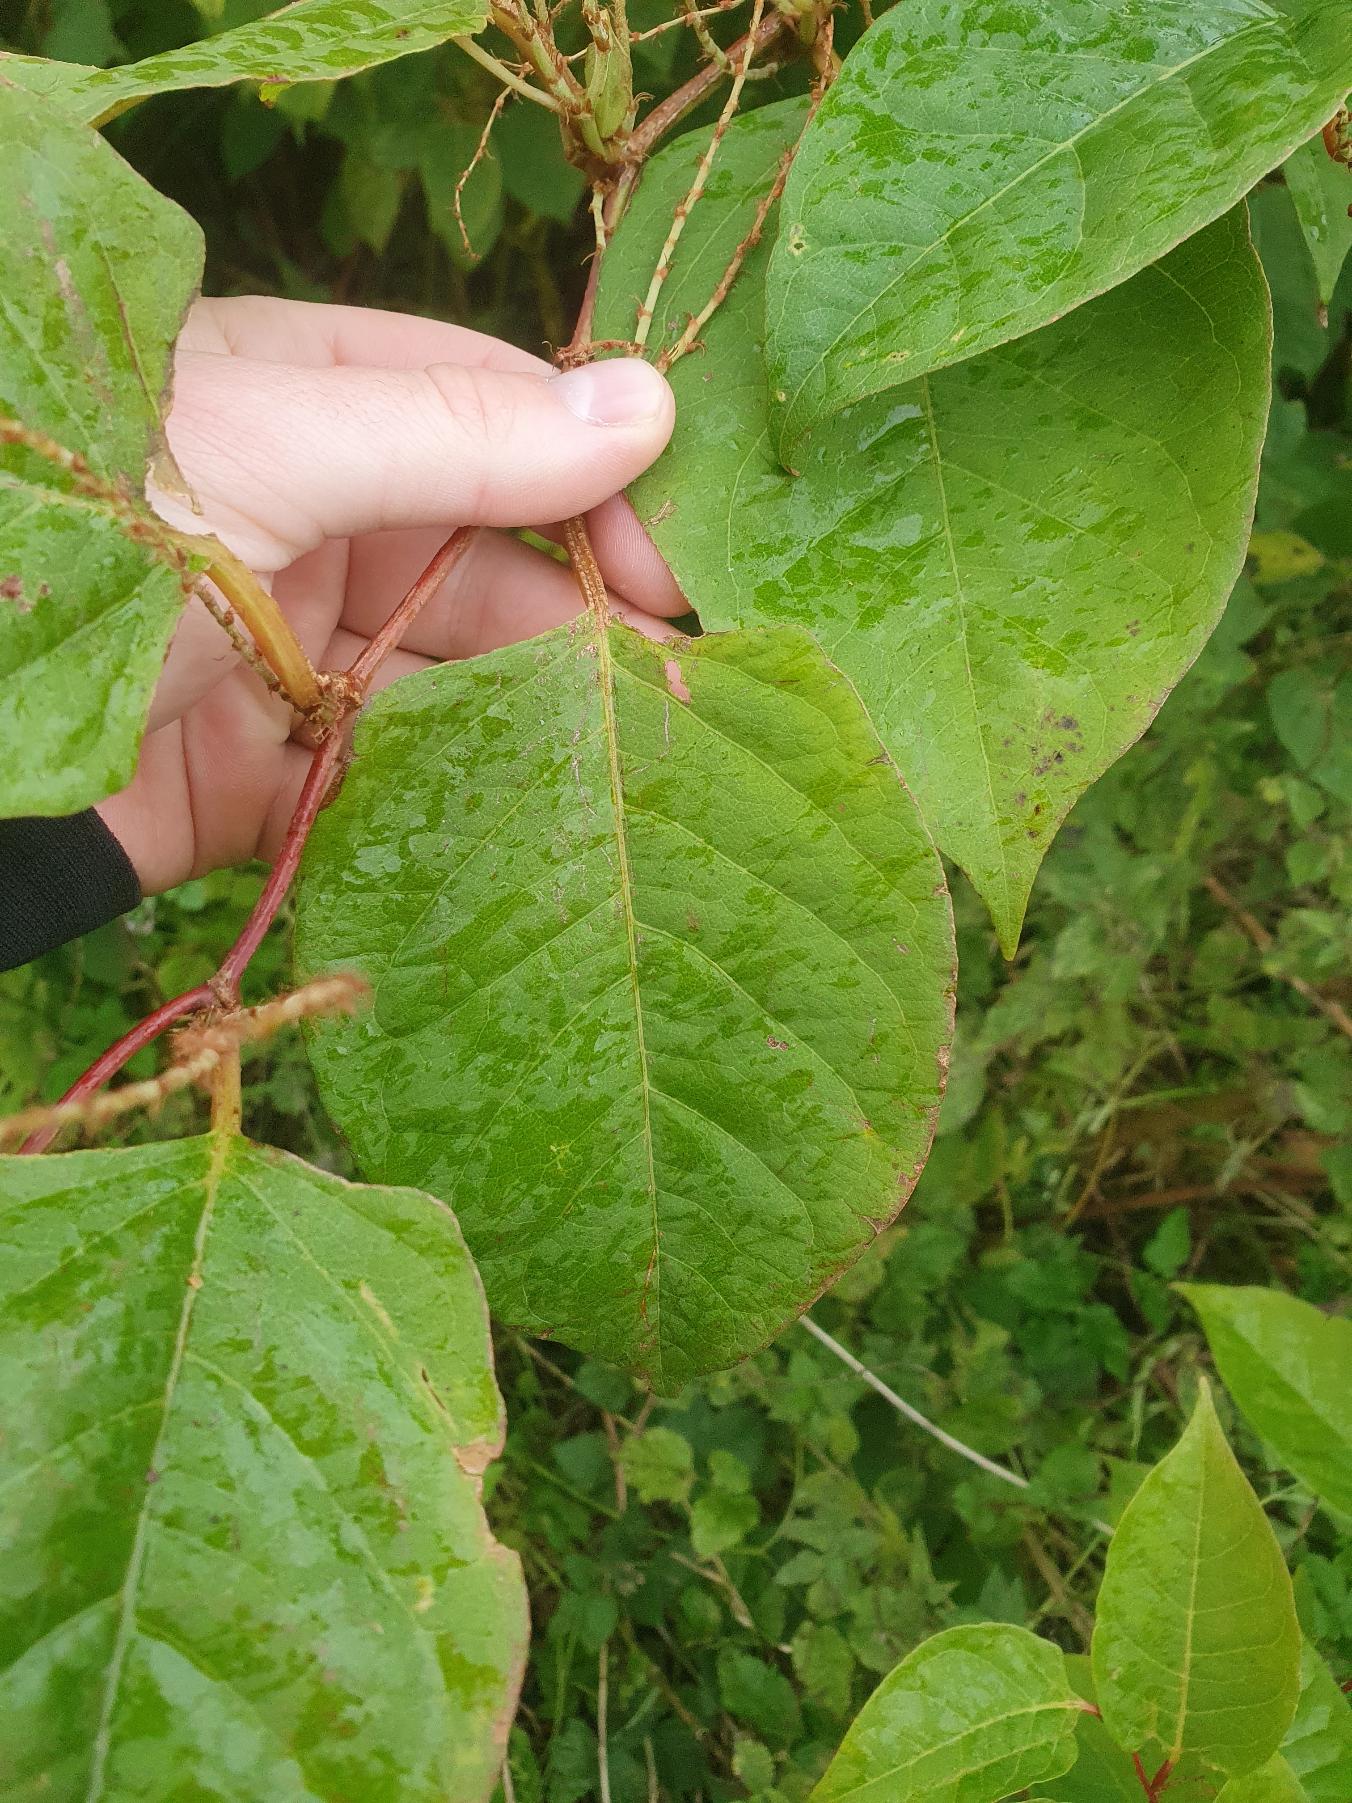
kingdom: Plantae
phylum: Tracheophyta
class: Magnoliopsida
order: Caryophyllales
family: Polygonaceae
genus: Reynoutria
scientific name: Reynoutria japonica
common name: Japan-pileurt
